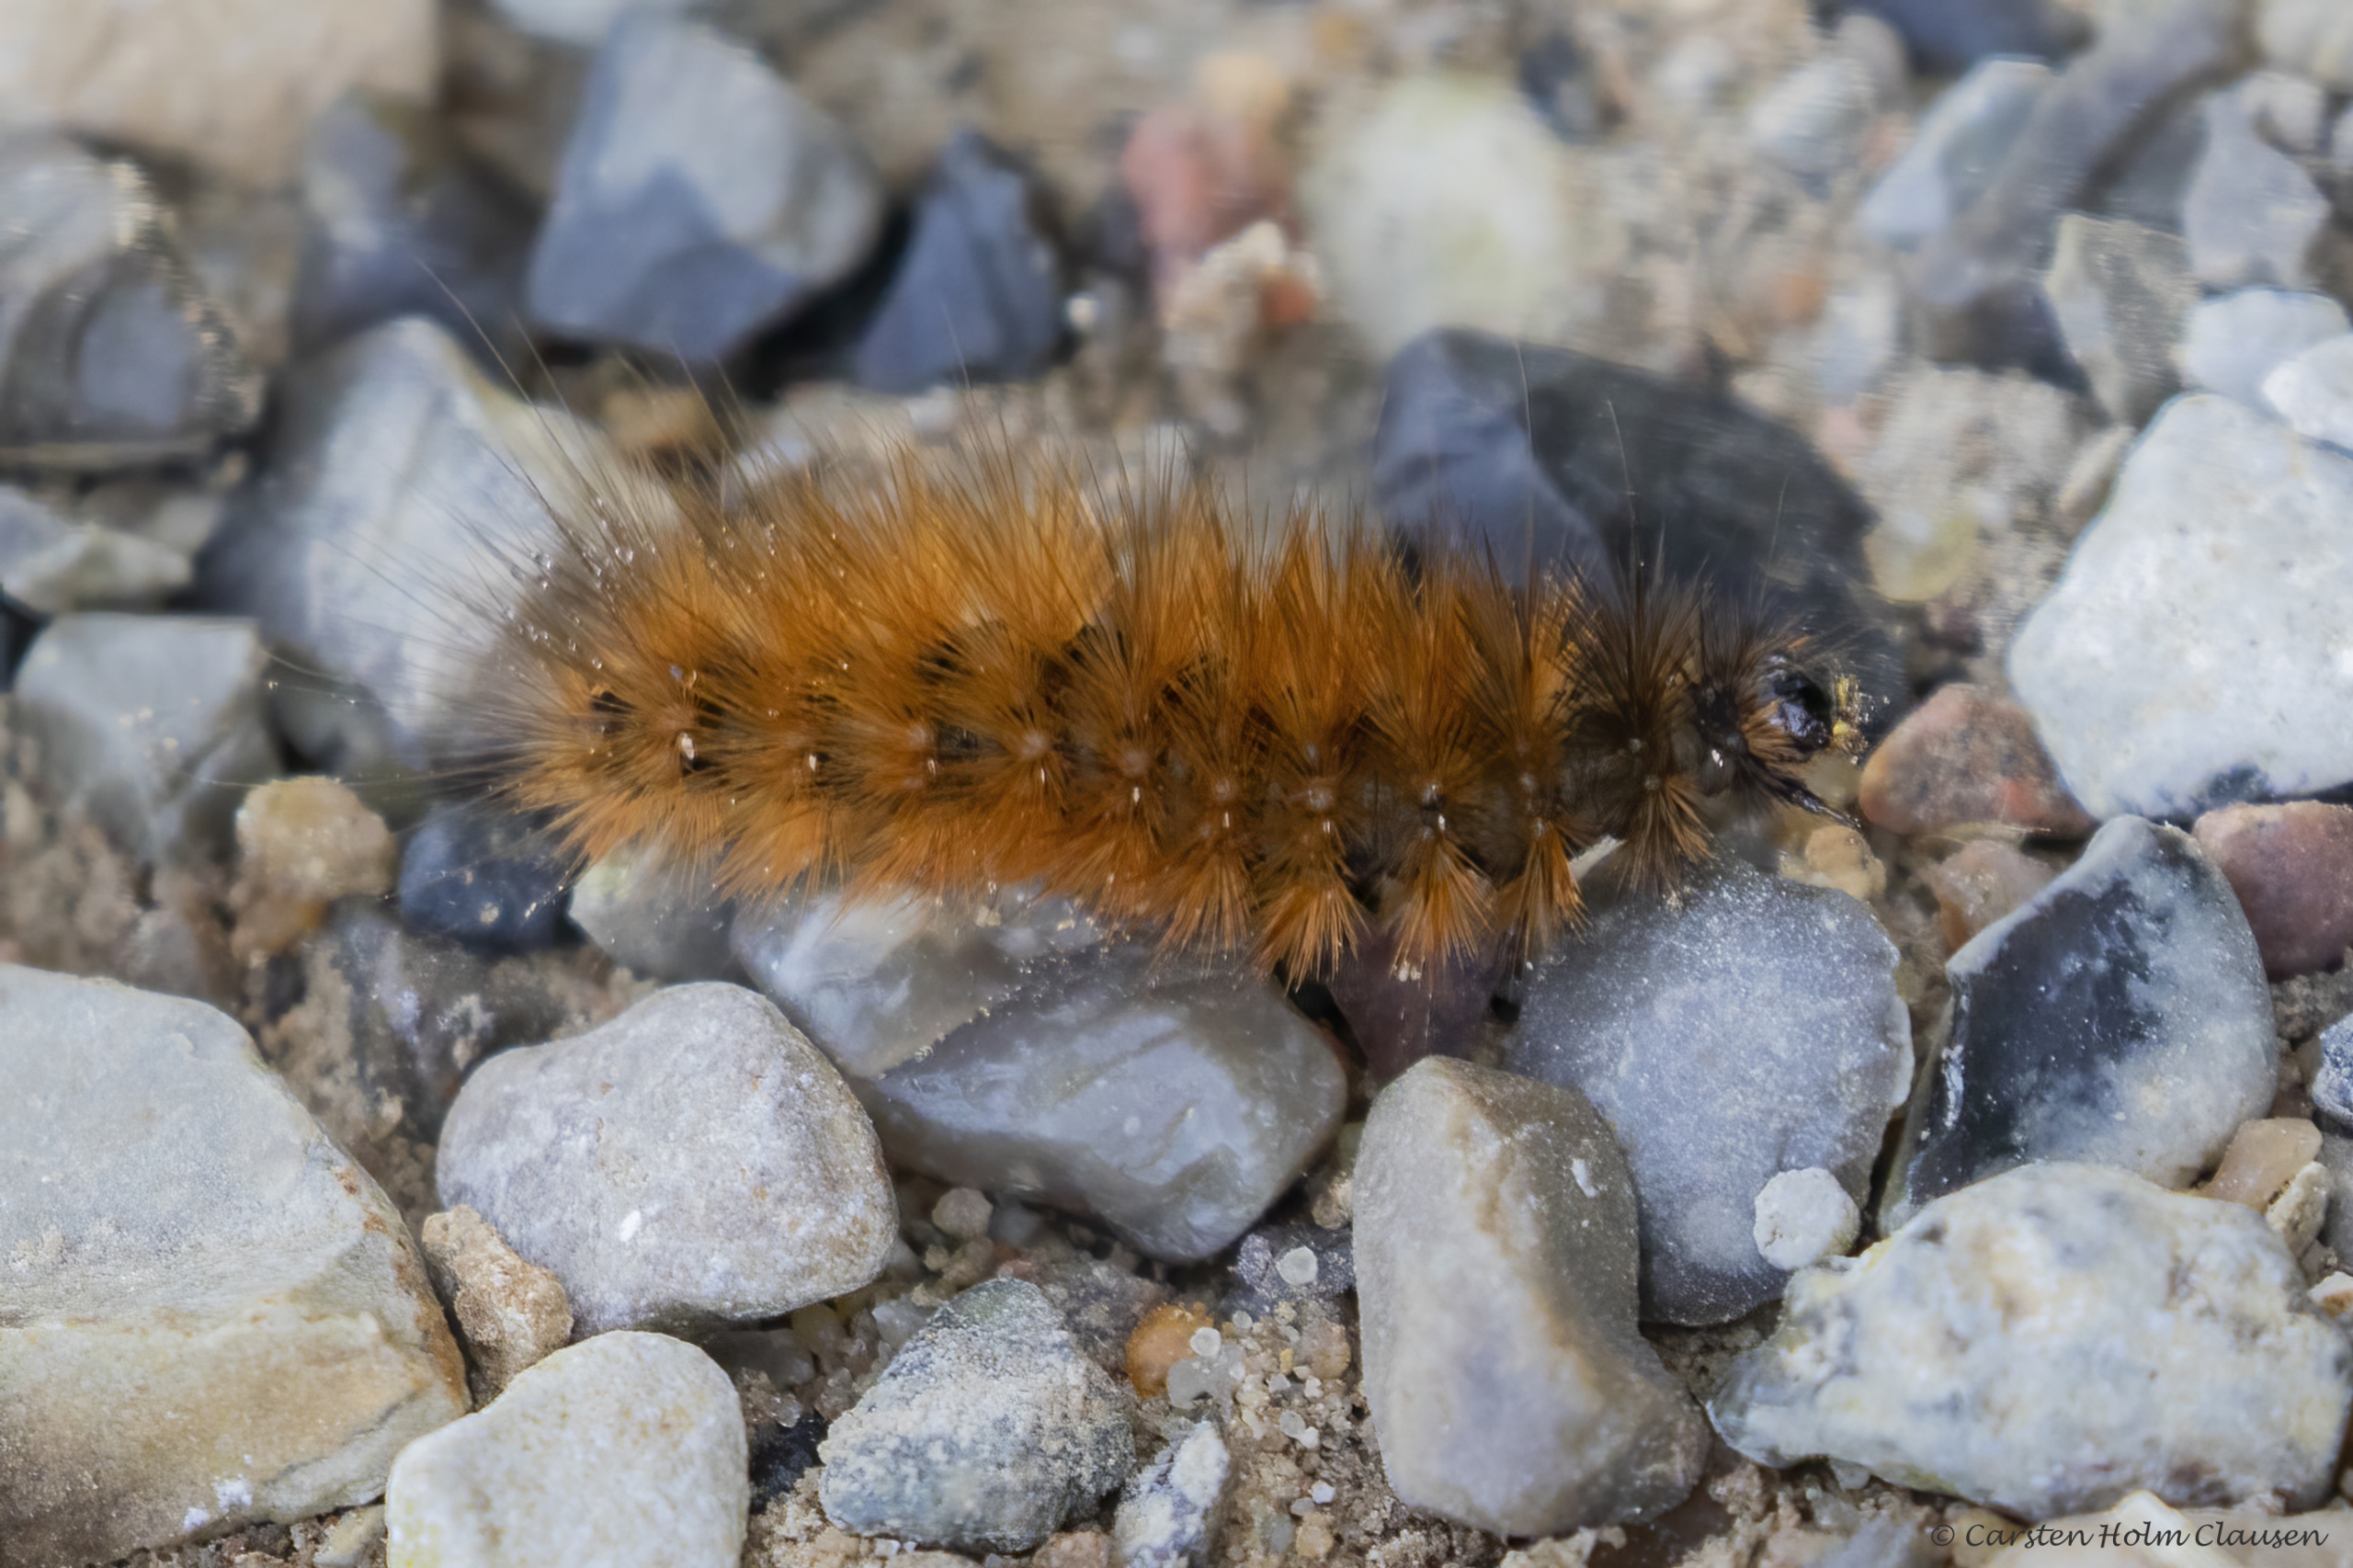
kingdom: Animalia
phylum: Arthropoda
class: Insecta
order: Lepidoptera
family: Erebidae
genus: Phragmatobia
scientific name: Phragmatobia fuliginosa
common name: Kanelbjørn
